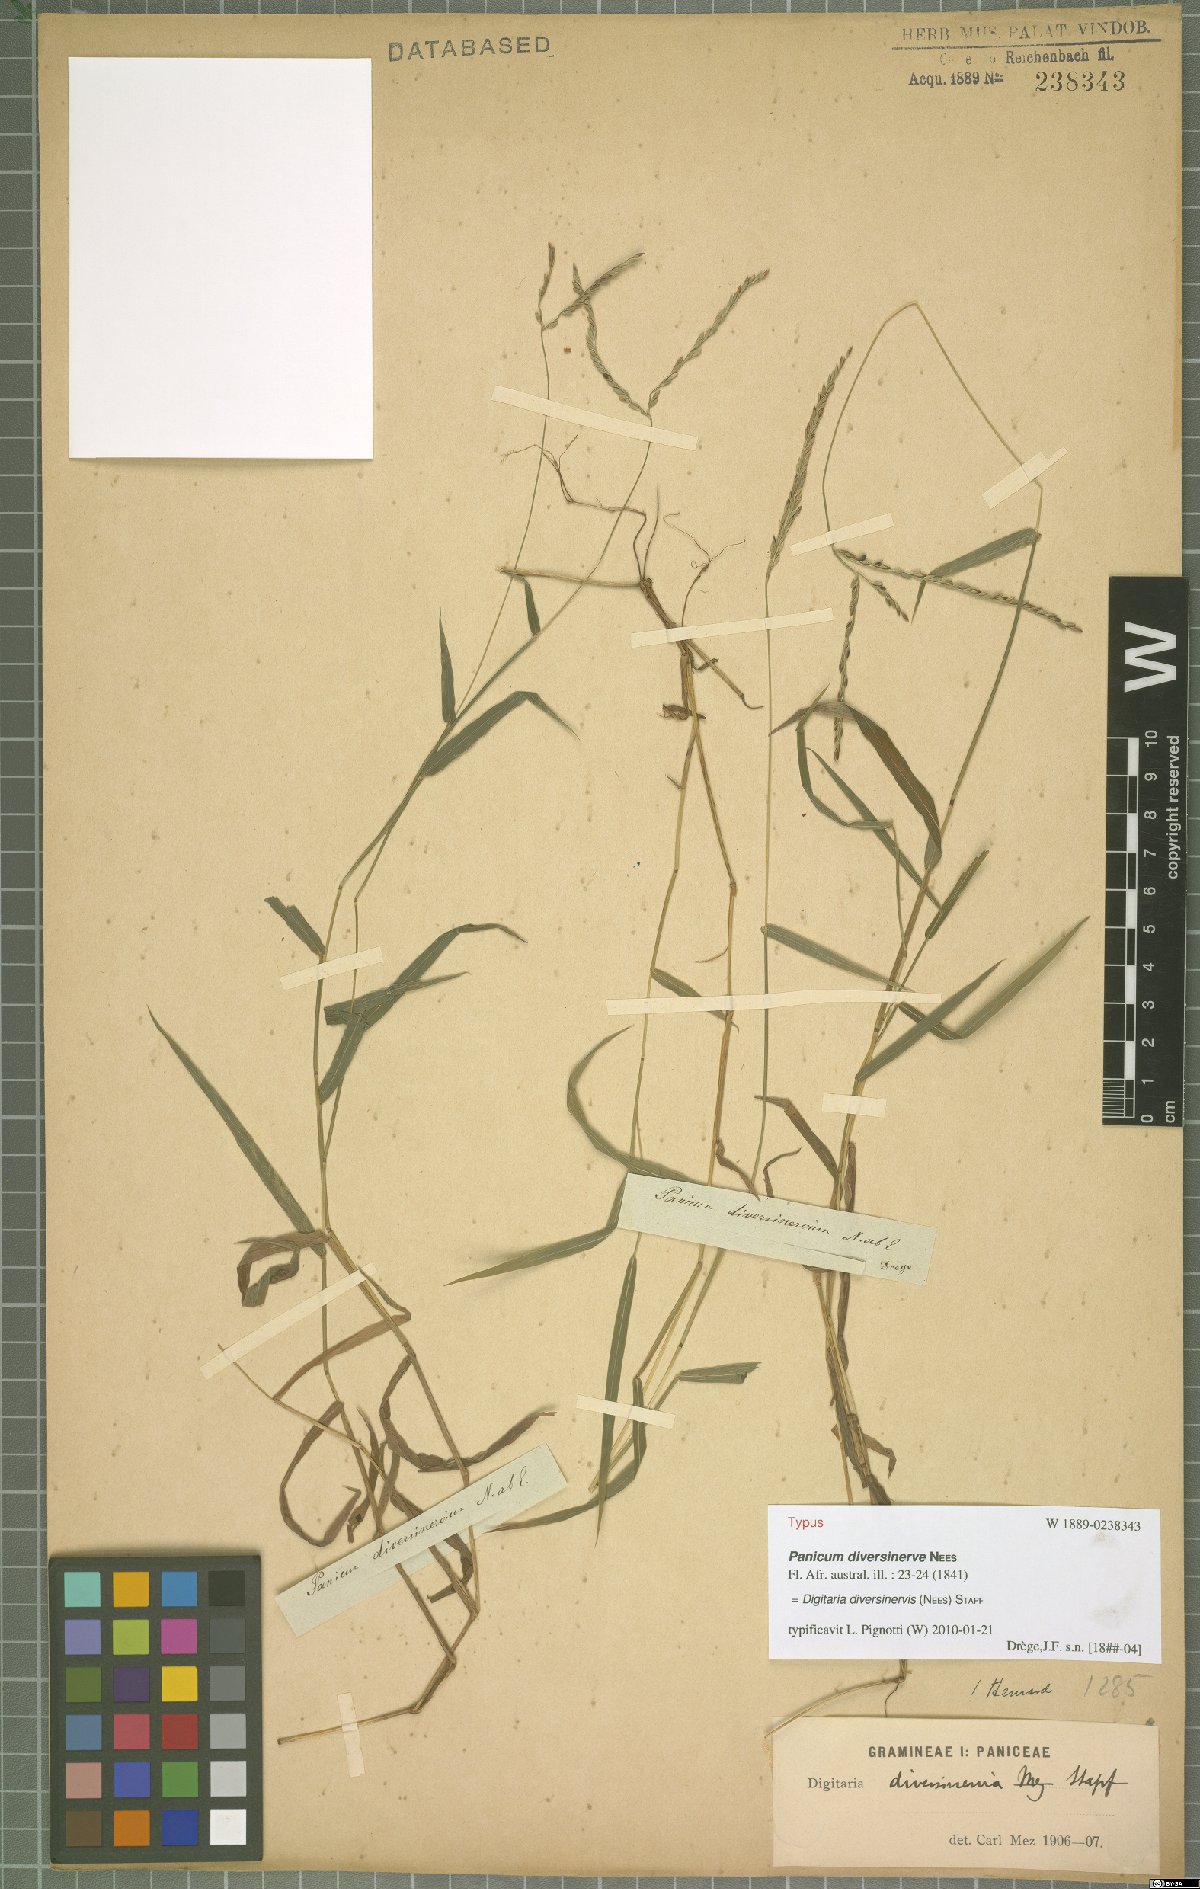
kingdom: Plantae
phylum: Tracheophyta
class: Liliopsida
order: Poales
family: Poaceae
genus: Digitaria
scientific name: Digitaria diversinervis
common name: Richmond finger grass
